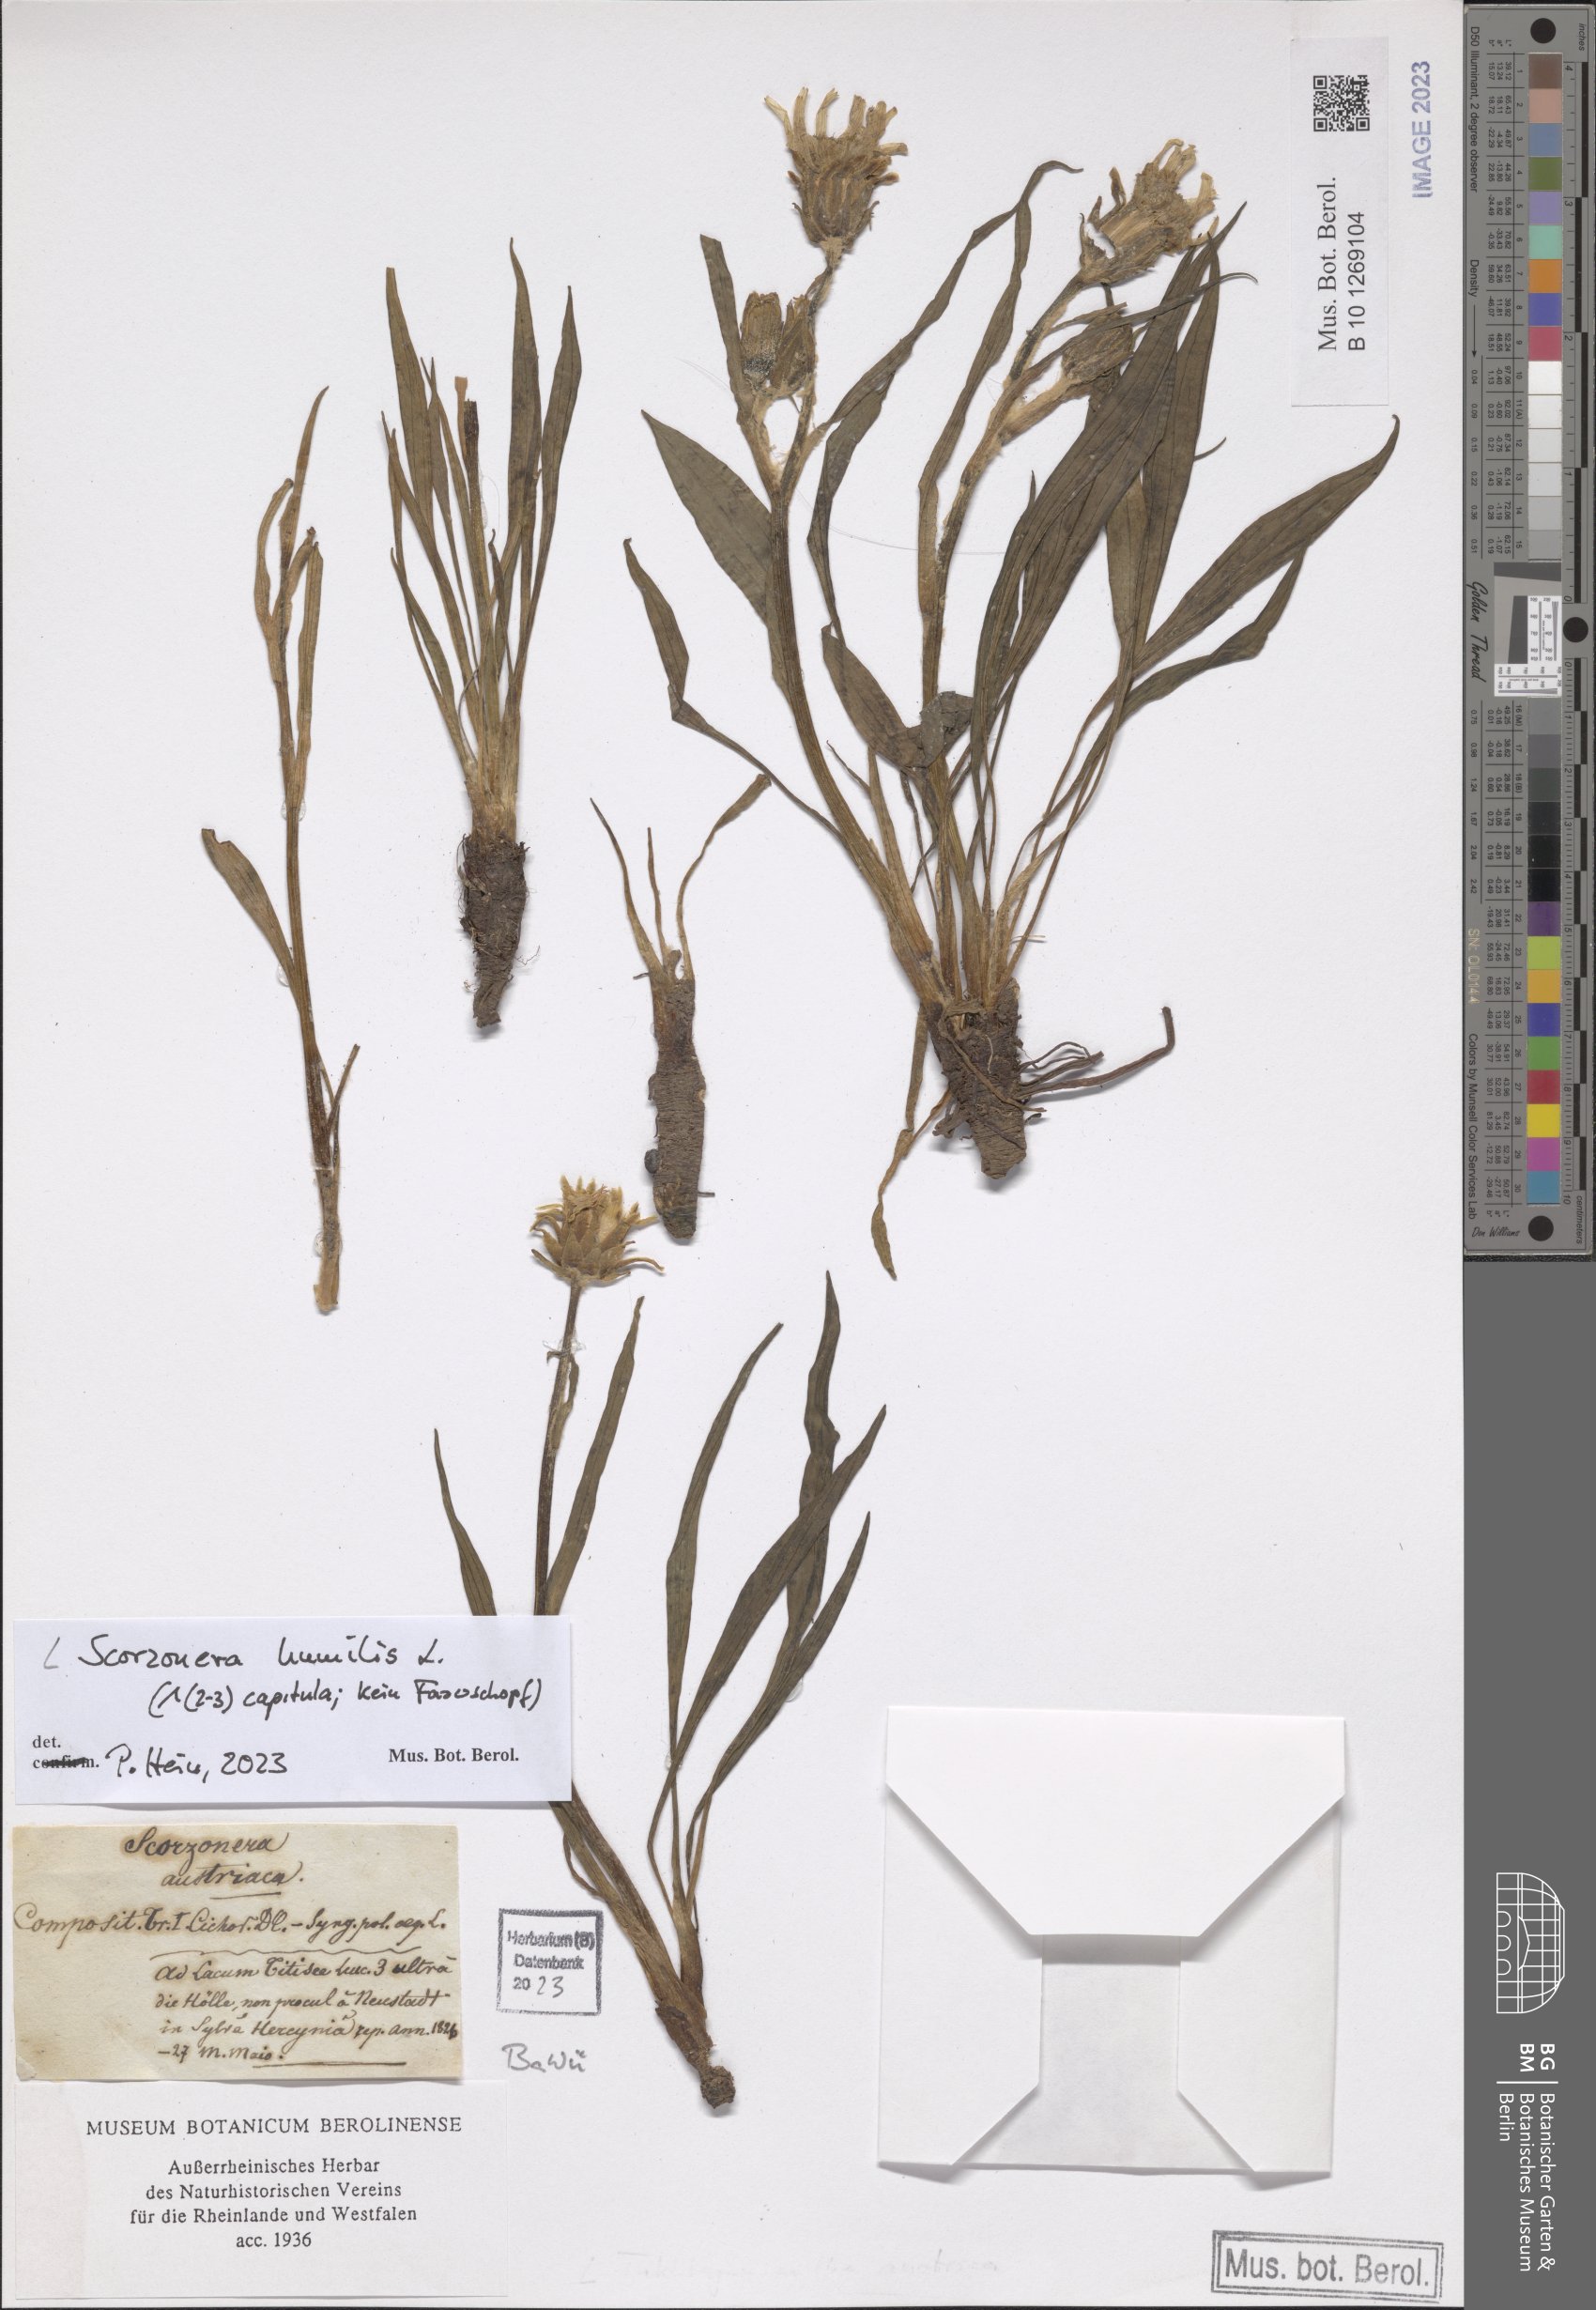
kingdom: Plantae
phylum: Tracheophyta
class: Magnoliopsida
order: Asterales
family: Asteraceae
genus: Scorzonera
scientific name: Scorzonera humilis
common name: Viper's-grass
